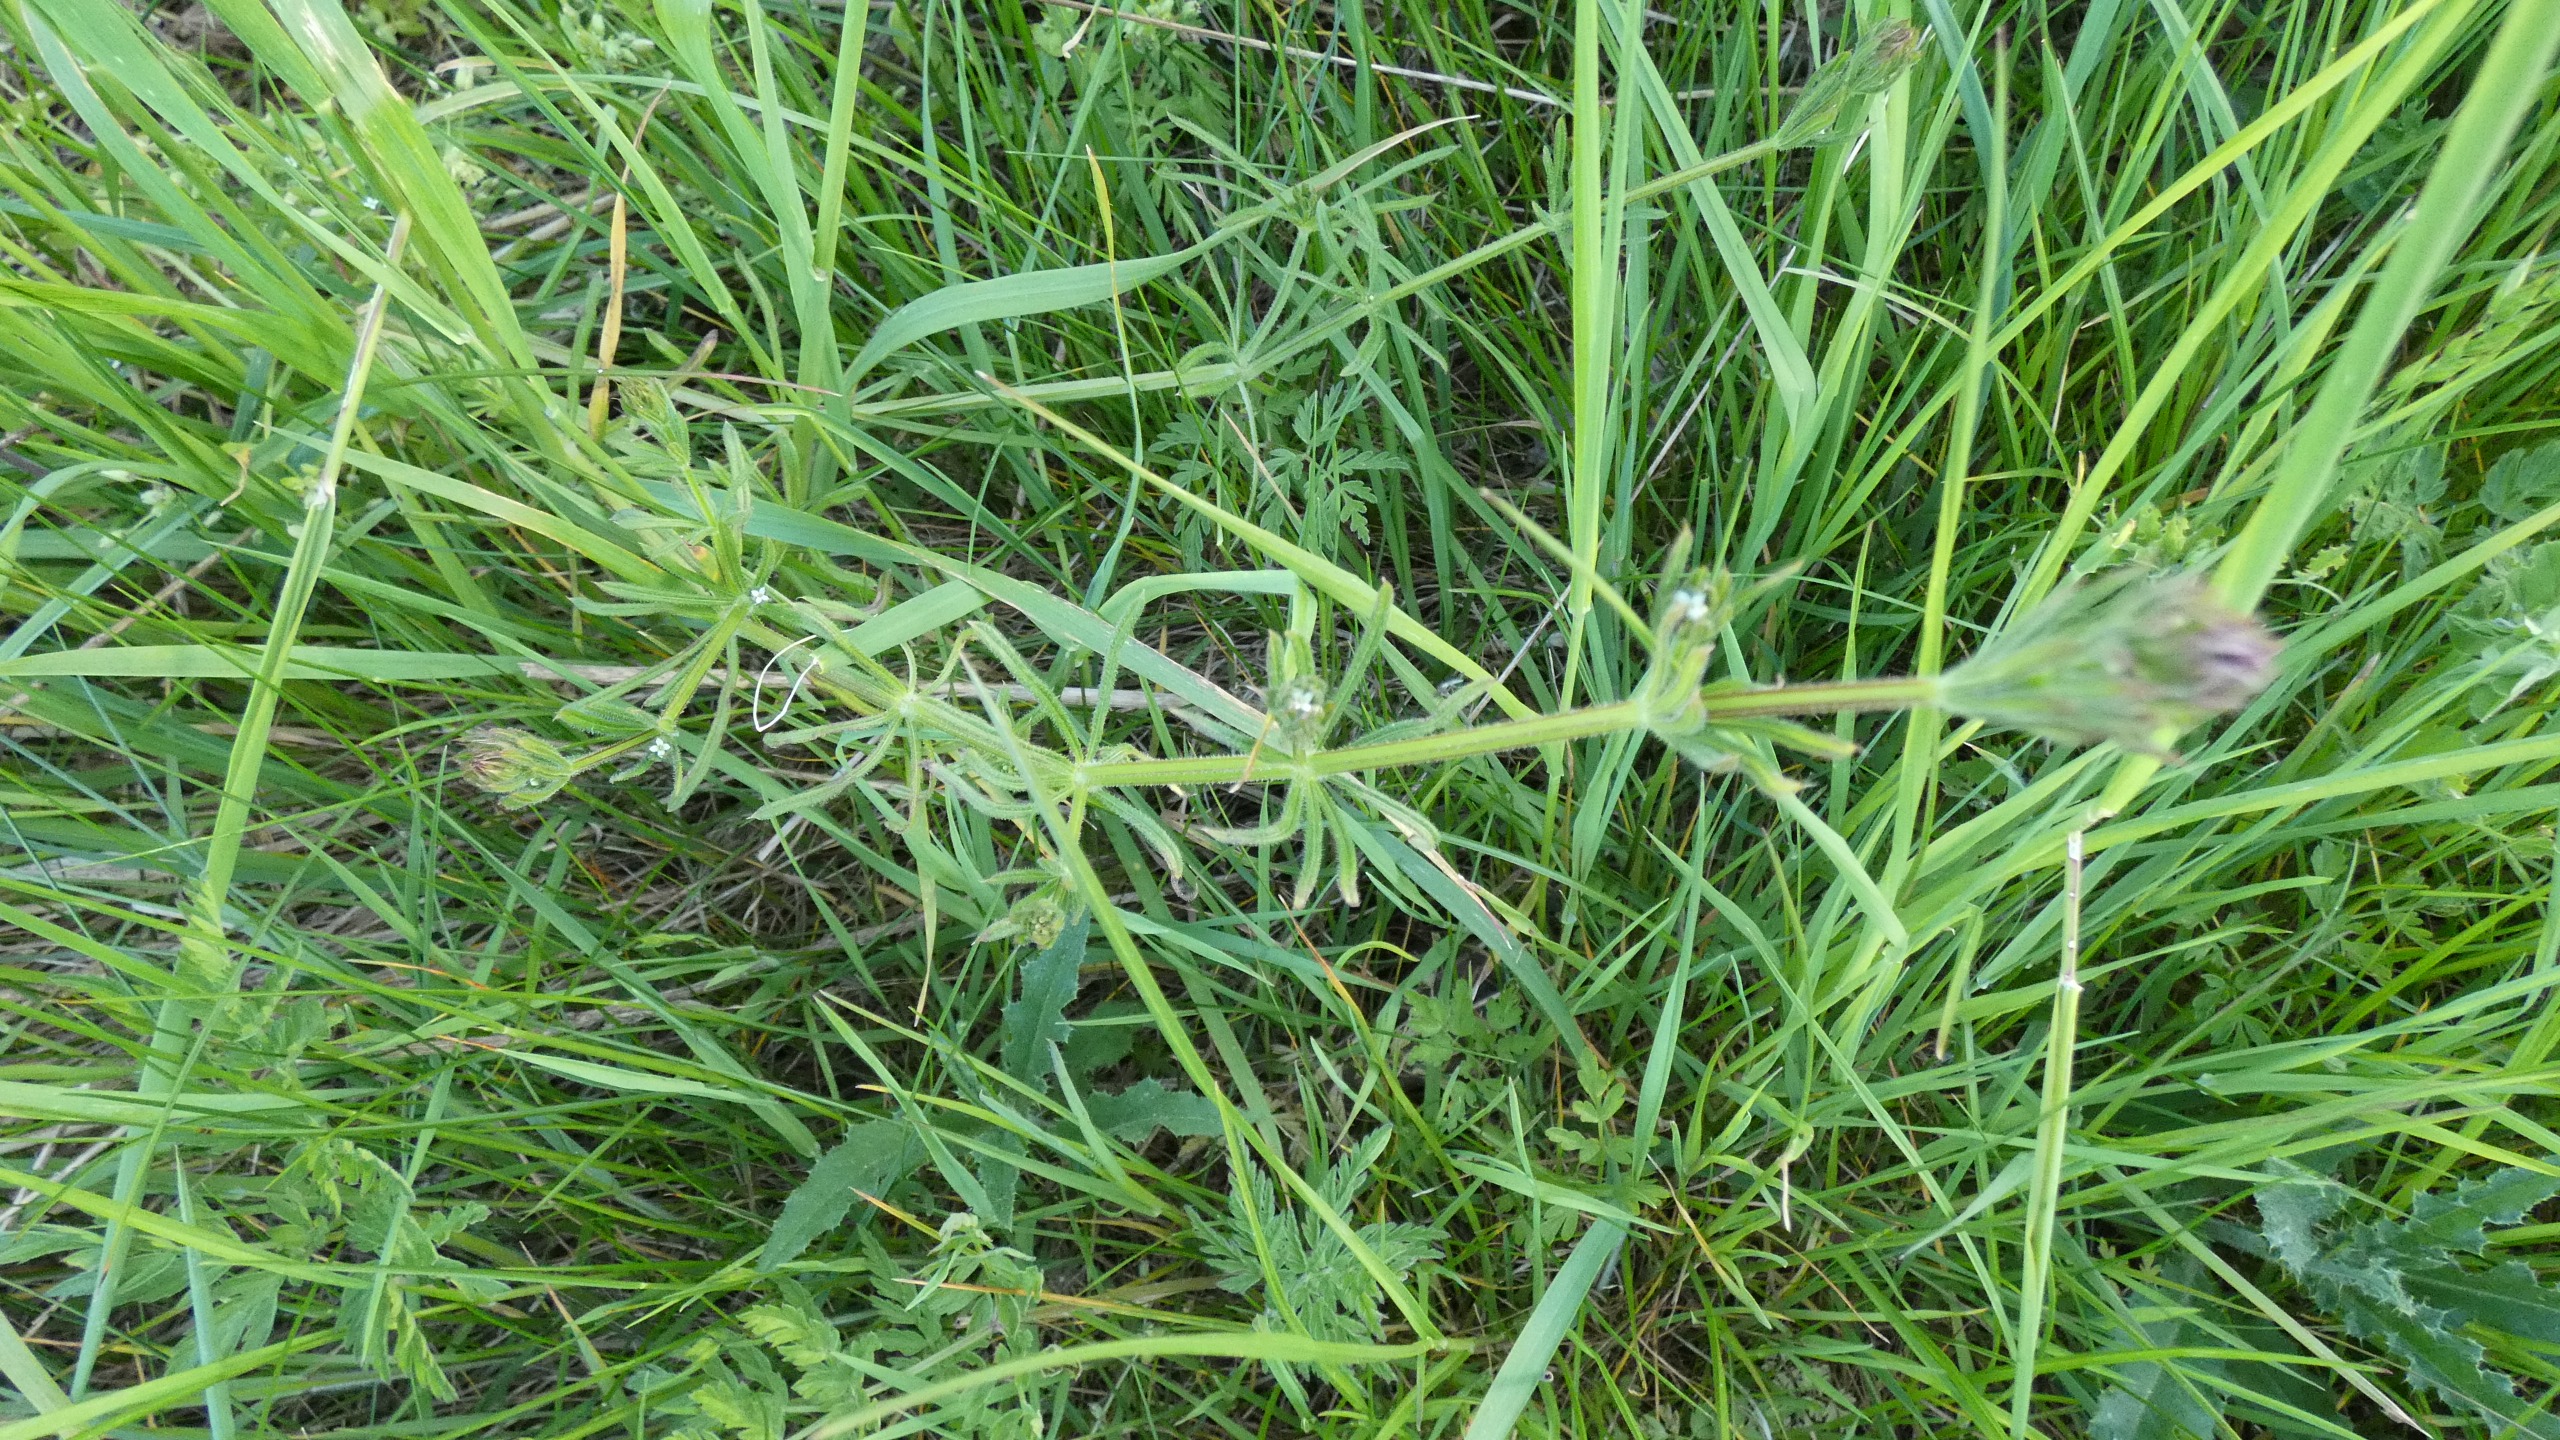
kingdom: Plantae
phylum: Tracheophyta
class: Magnoliopsida
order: Gentianales
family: Rubiaceae
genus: Galium
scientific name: Galium aparine
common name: Burre-snerre
